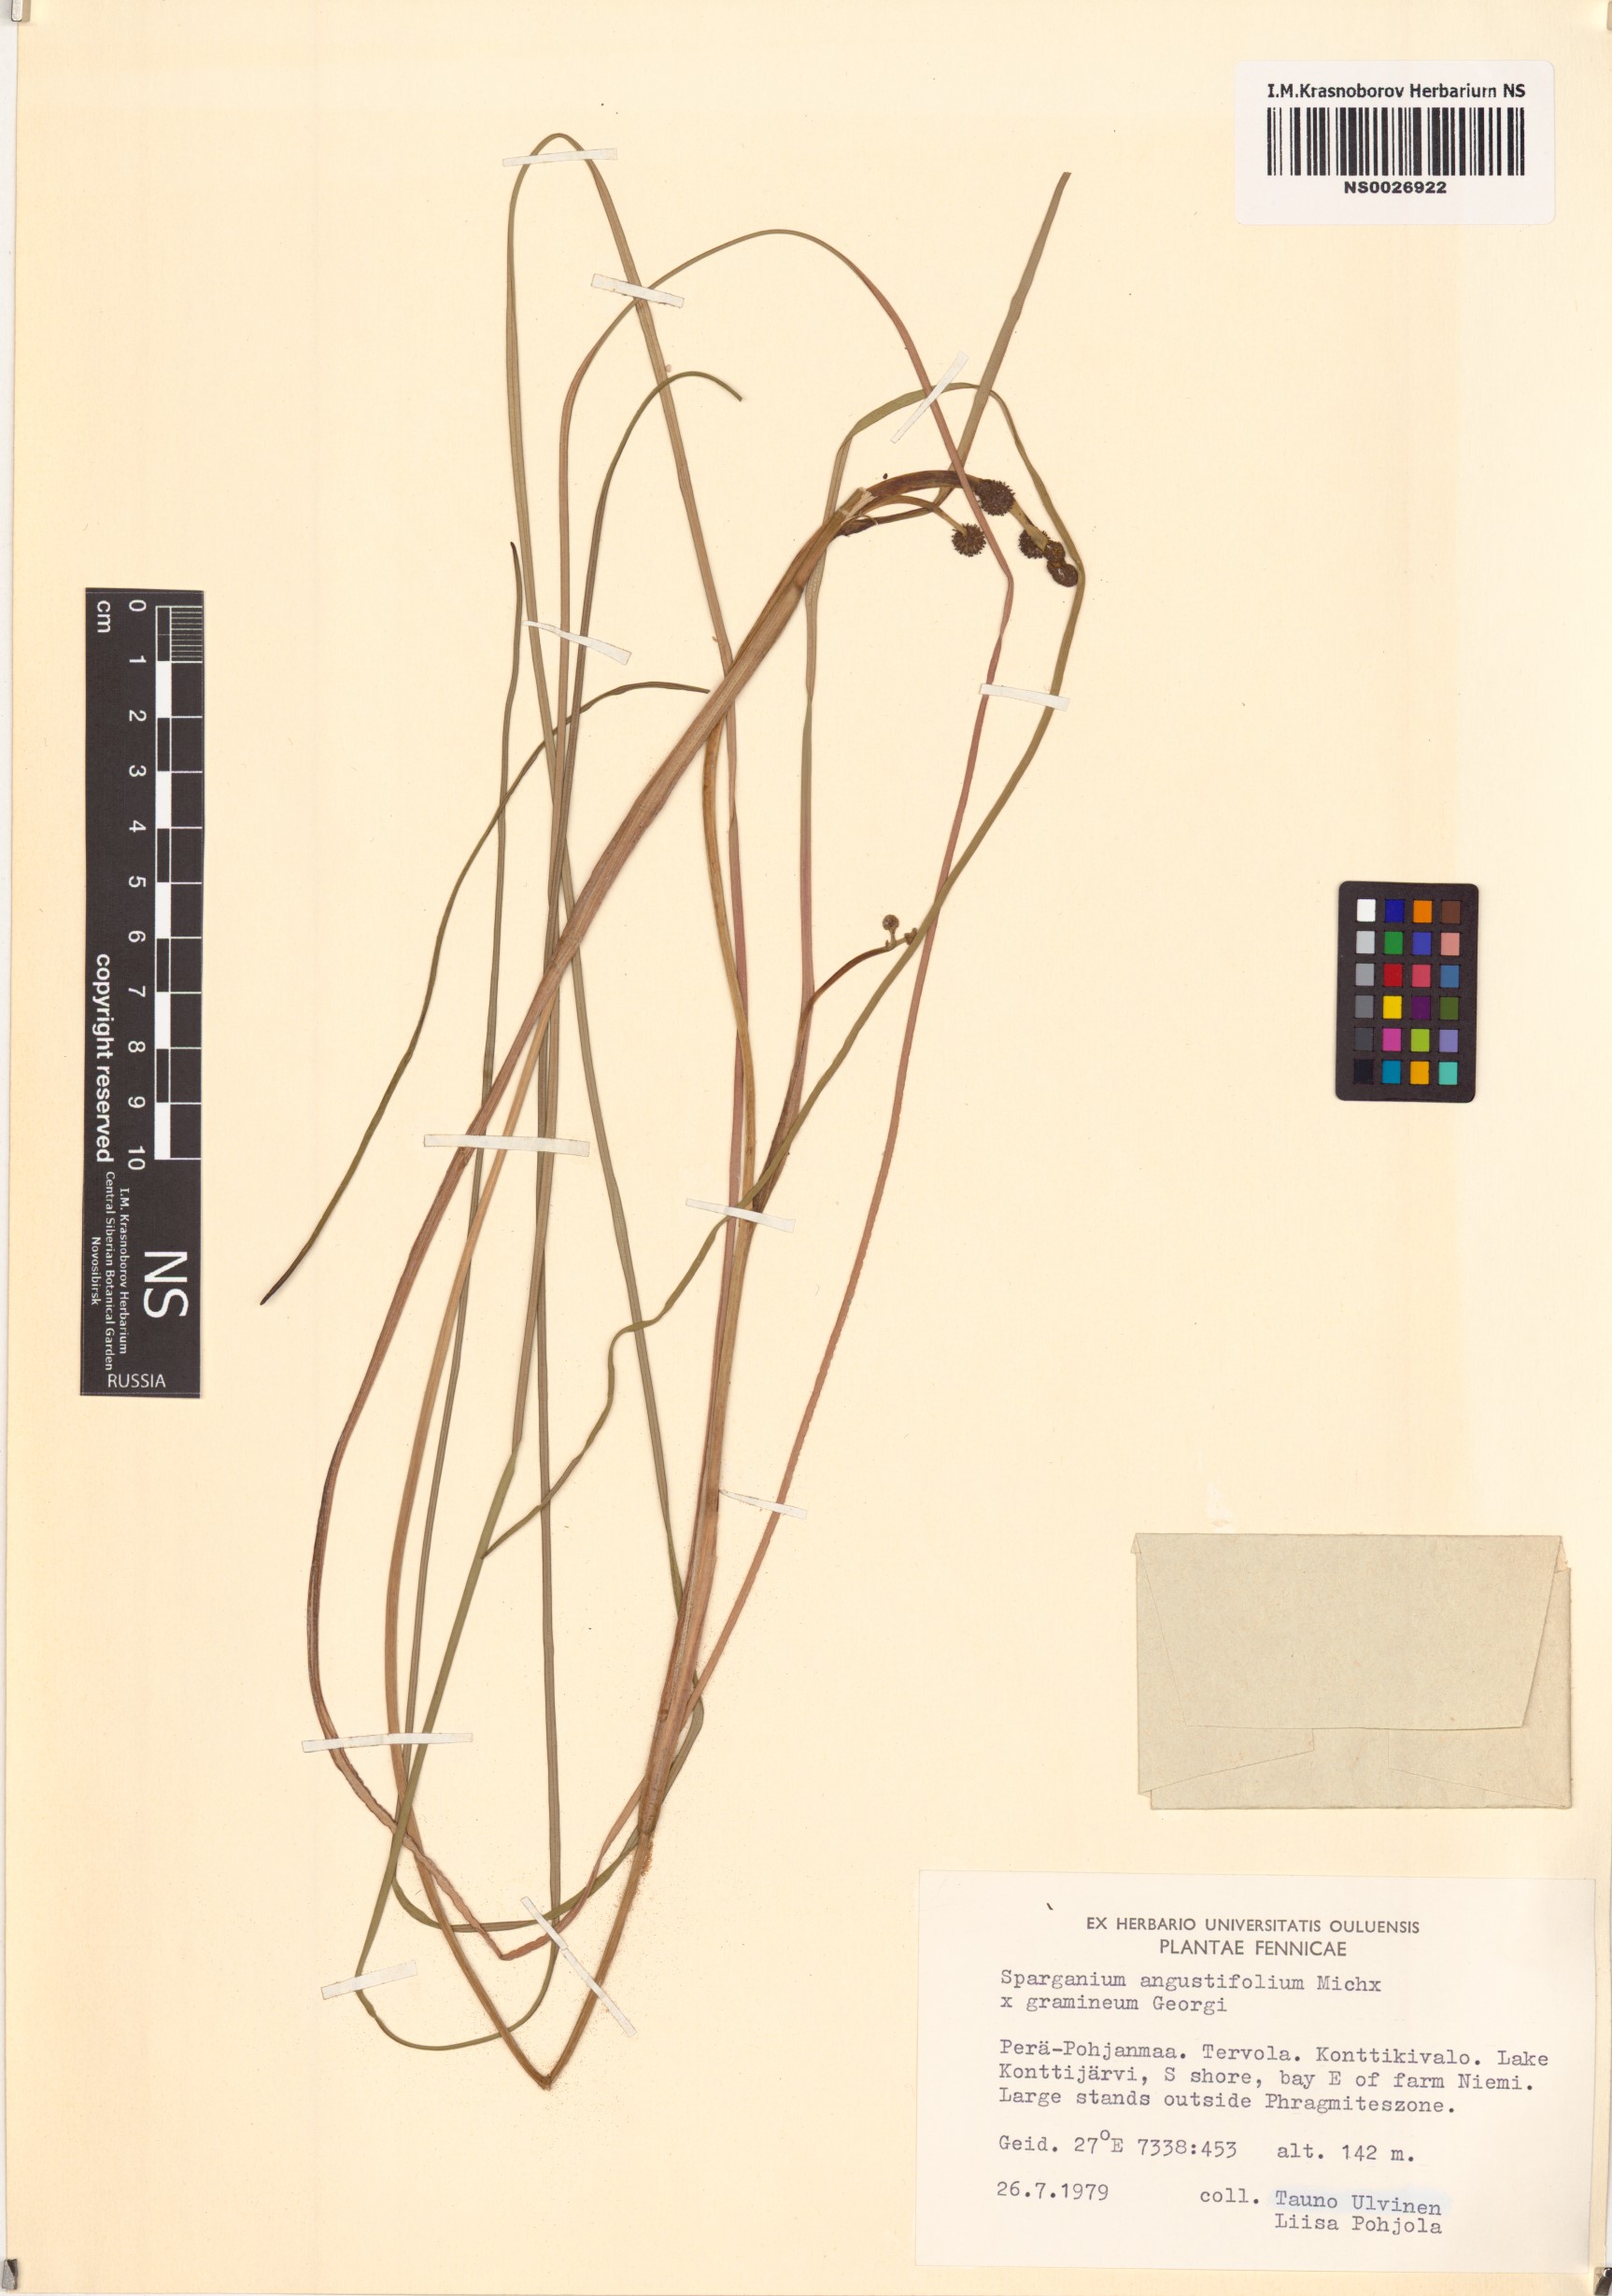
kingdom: Plantae
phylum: Tracheophyta
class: Liliopsida
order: Poales
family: Typhaceae
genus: Sparganium
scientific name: Sparganium
